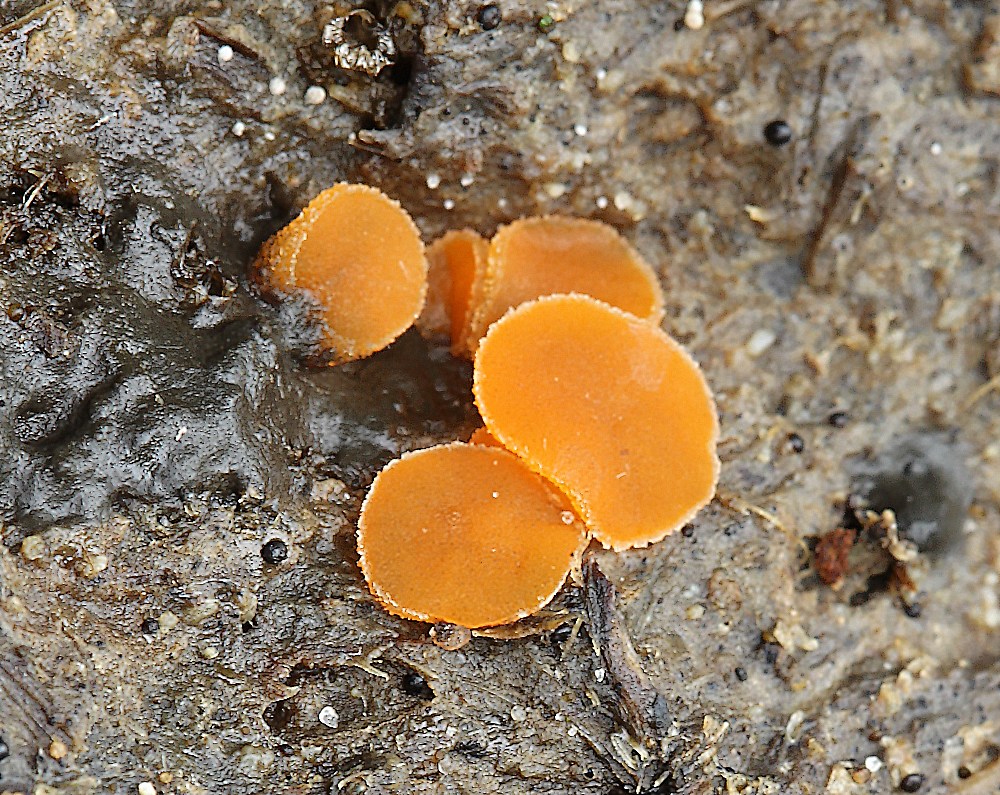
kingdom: Fungi
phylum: Ascomycota
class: Pezizomycetes
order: Pezizales
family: Pyronemataceae
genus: Cheilymenia
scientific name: Cheilymenia granulata
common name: møgbæger
